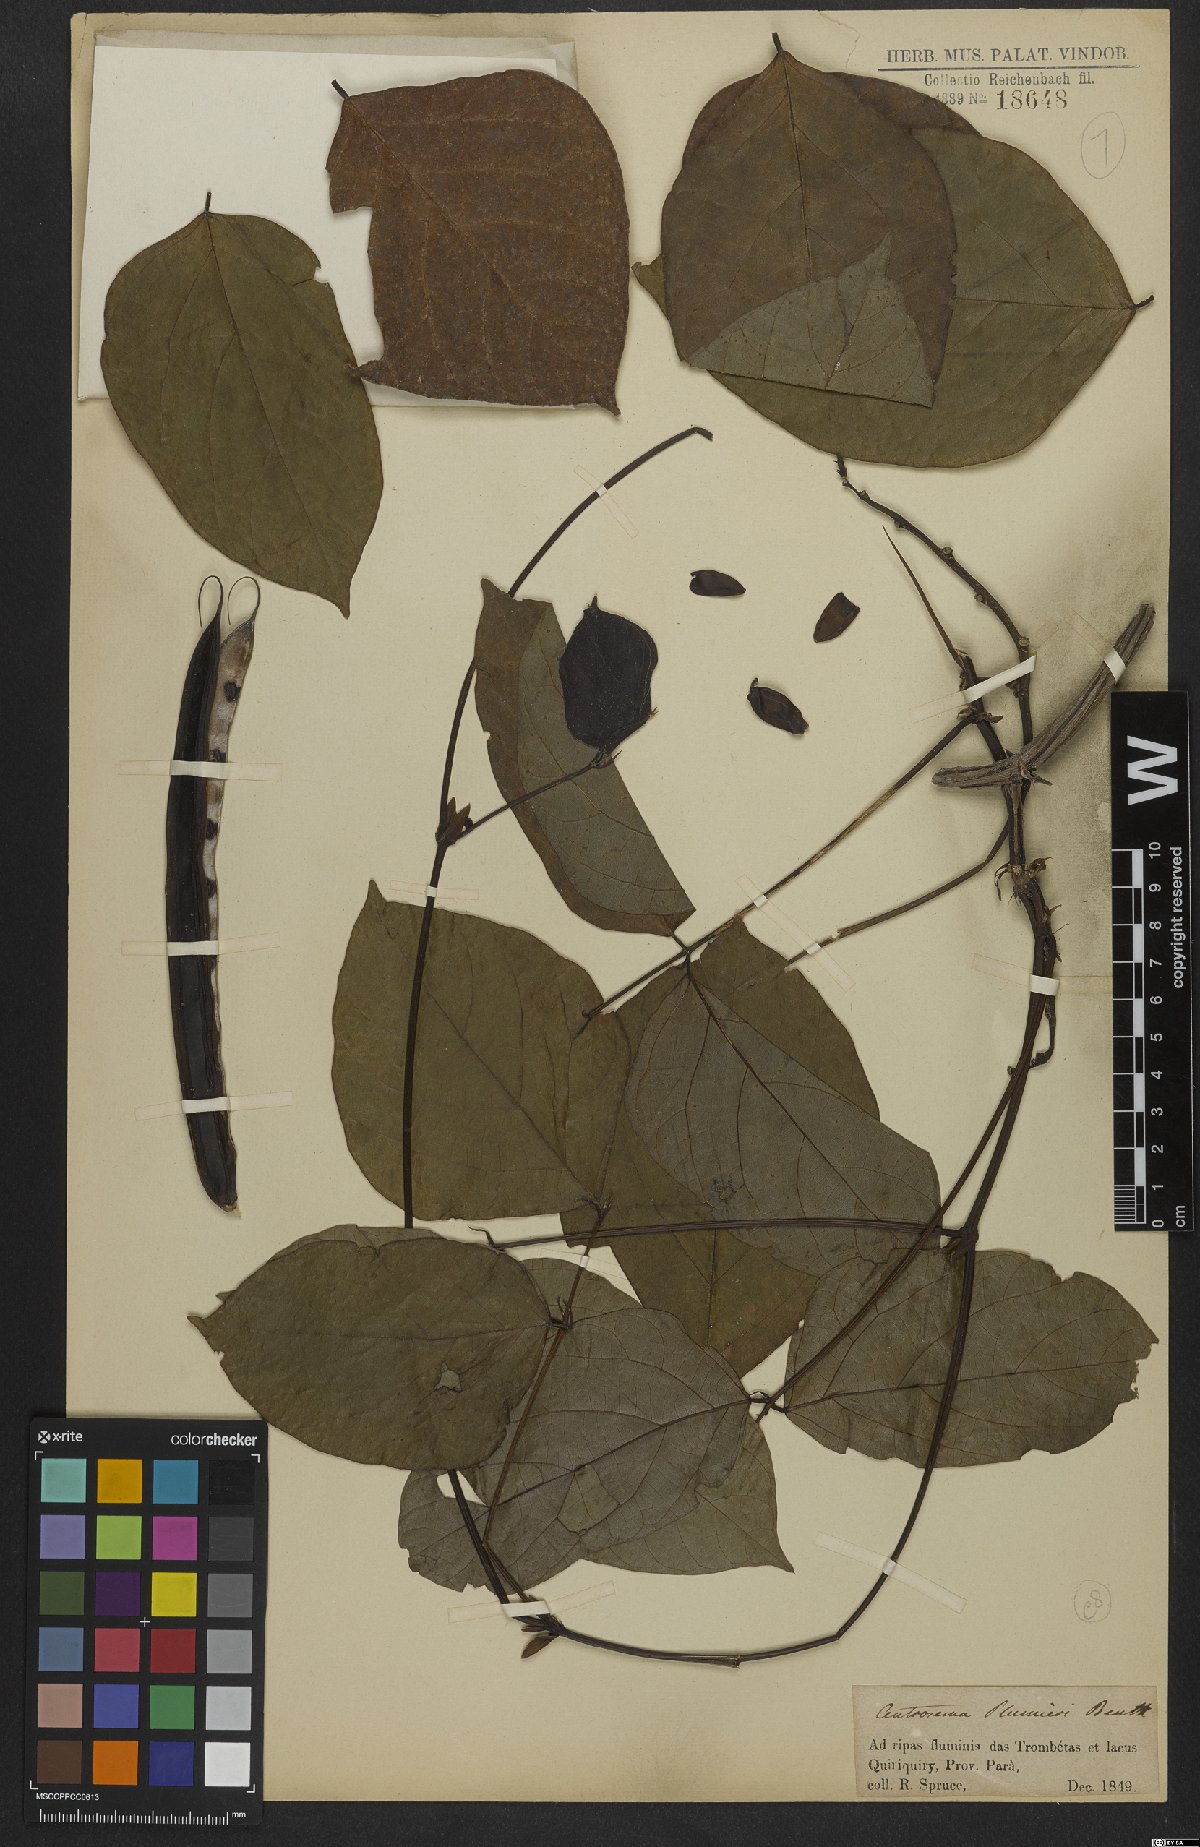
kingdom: Plantae
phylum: Tracheophyta
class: Magnoliopsida
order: Fabales
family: Fabaceae
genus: Centrosema
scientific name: Centrosema plumieri
